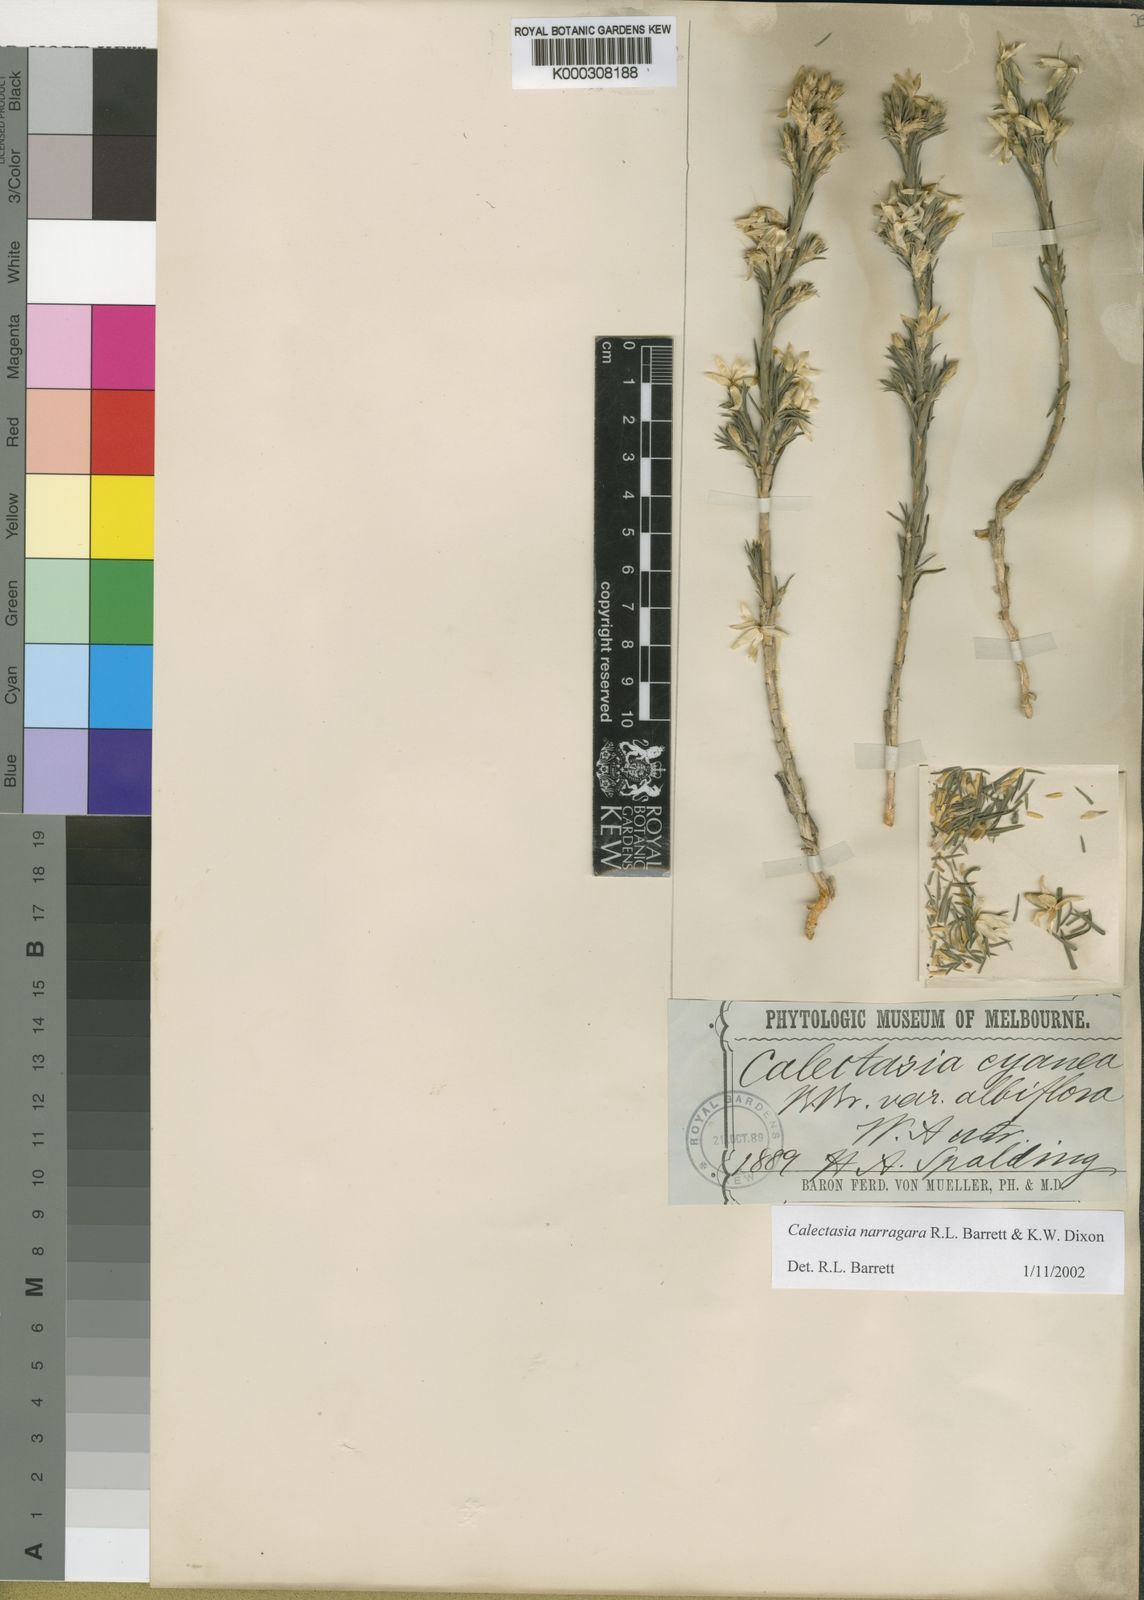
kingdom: Plantae
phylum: Tracheophyta
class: Liliopsida
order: Arecales
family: Dasypogonaceae
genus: Calectasia
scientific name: Calectasia cyanea
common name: Blue tinsel-lily
